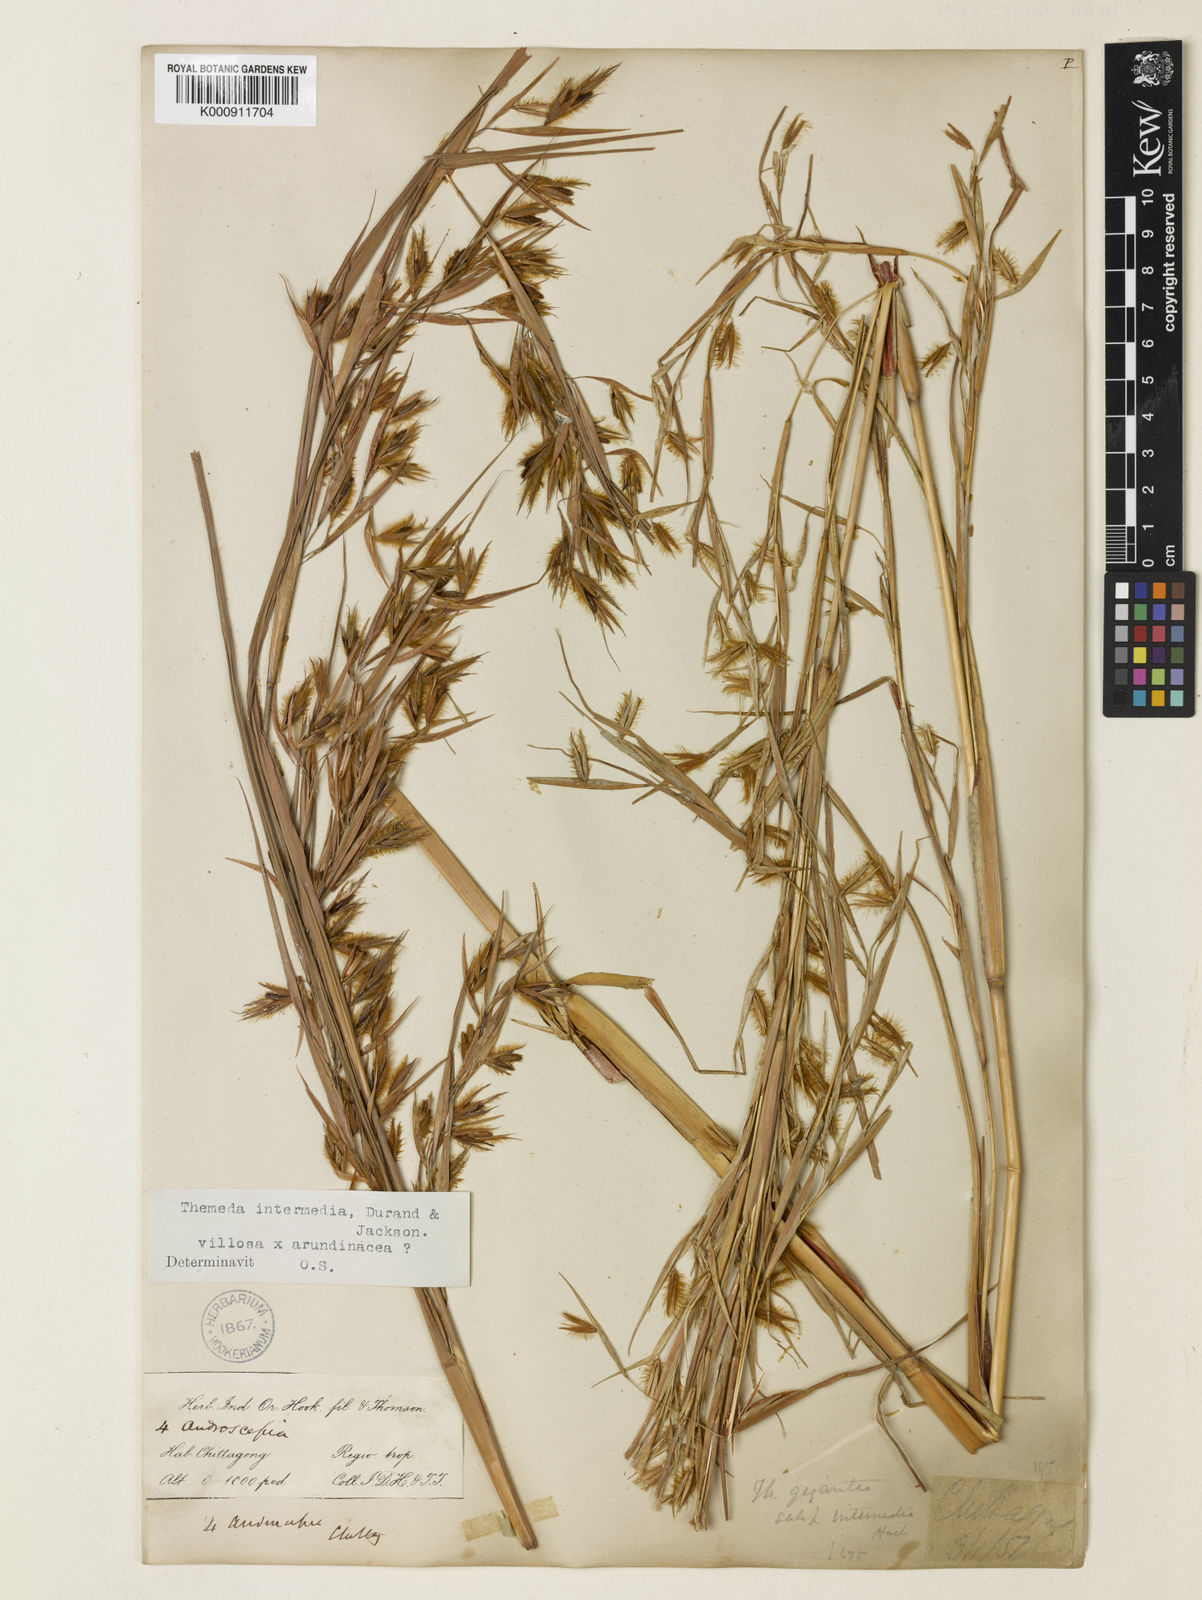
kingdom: Plantae
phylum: Tracheophyta
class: Liliopsida
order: Poales
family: Poaceae
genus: Themeda
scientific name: Themeda
